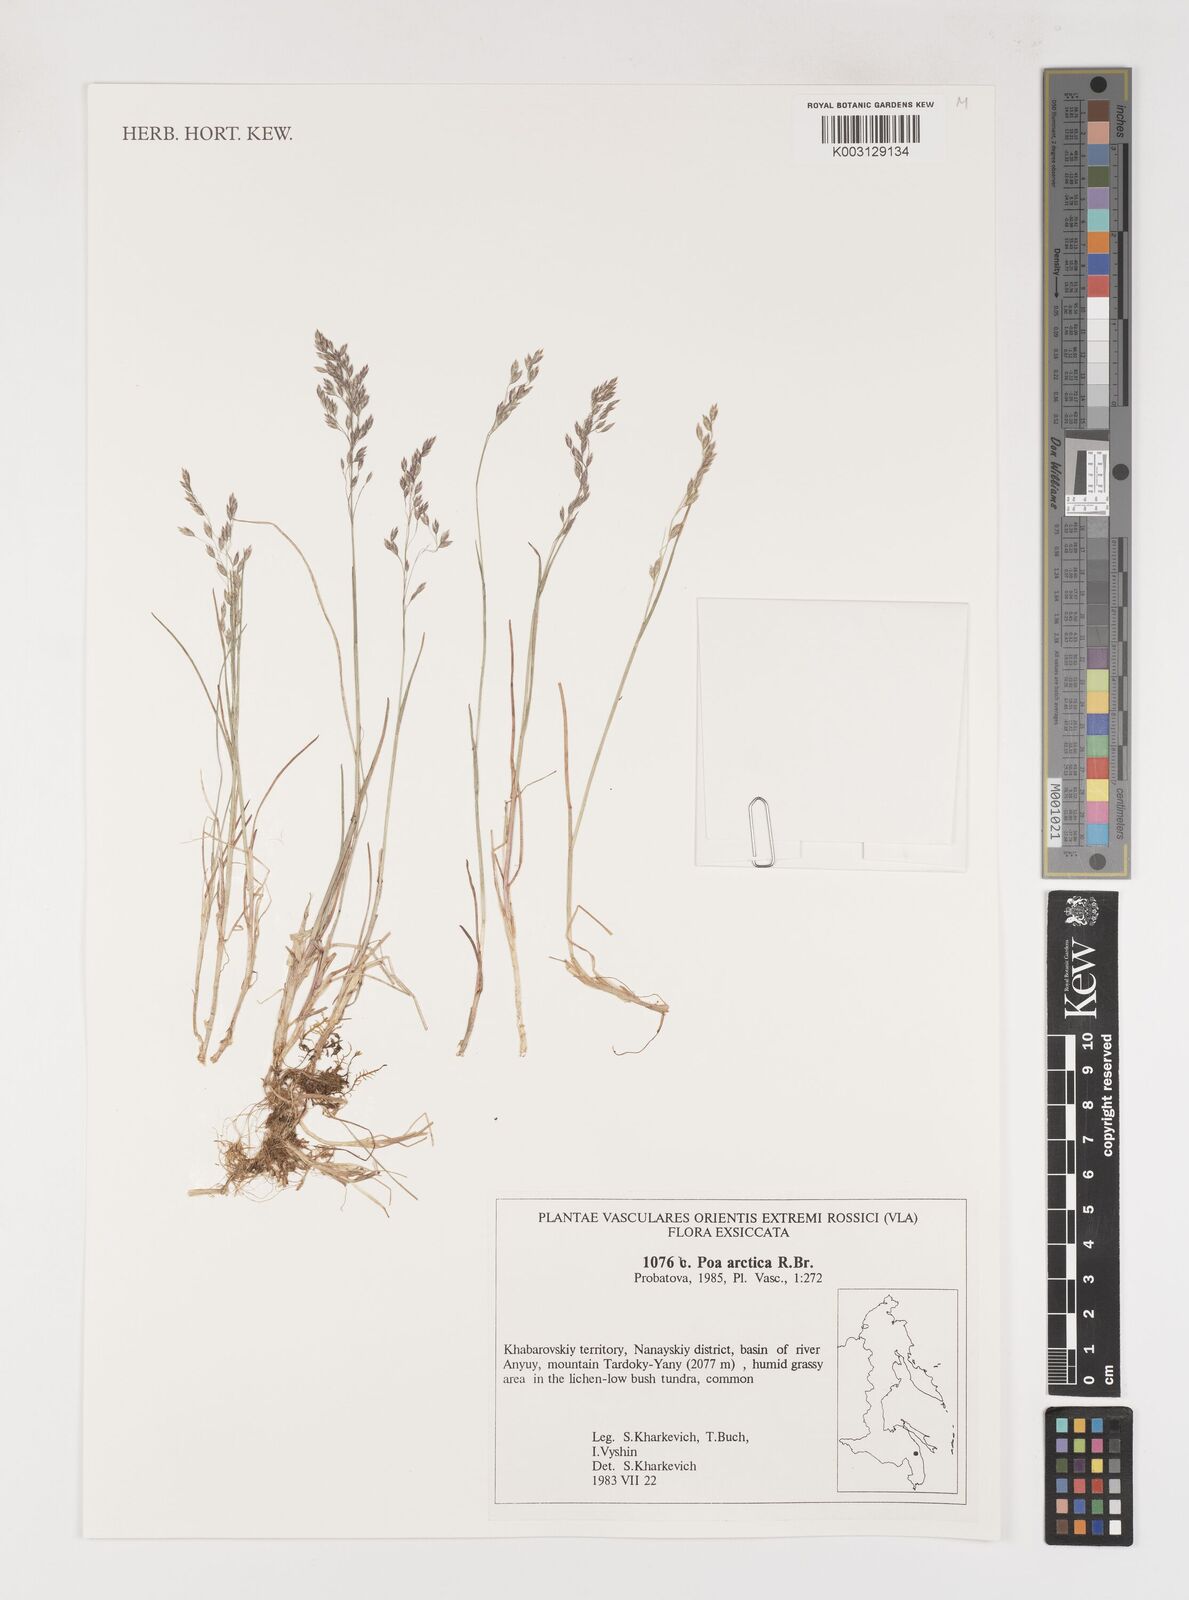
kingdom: Plantae
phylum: Tracheophyta
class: Liliopsida
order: Poales
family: Poaceae
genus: Poa
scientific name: Poa arctica
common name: Arctic bluegrass
